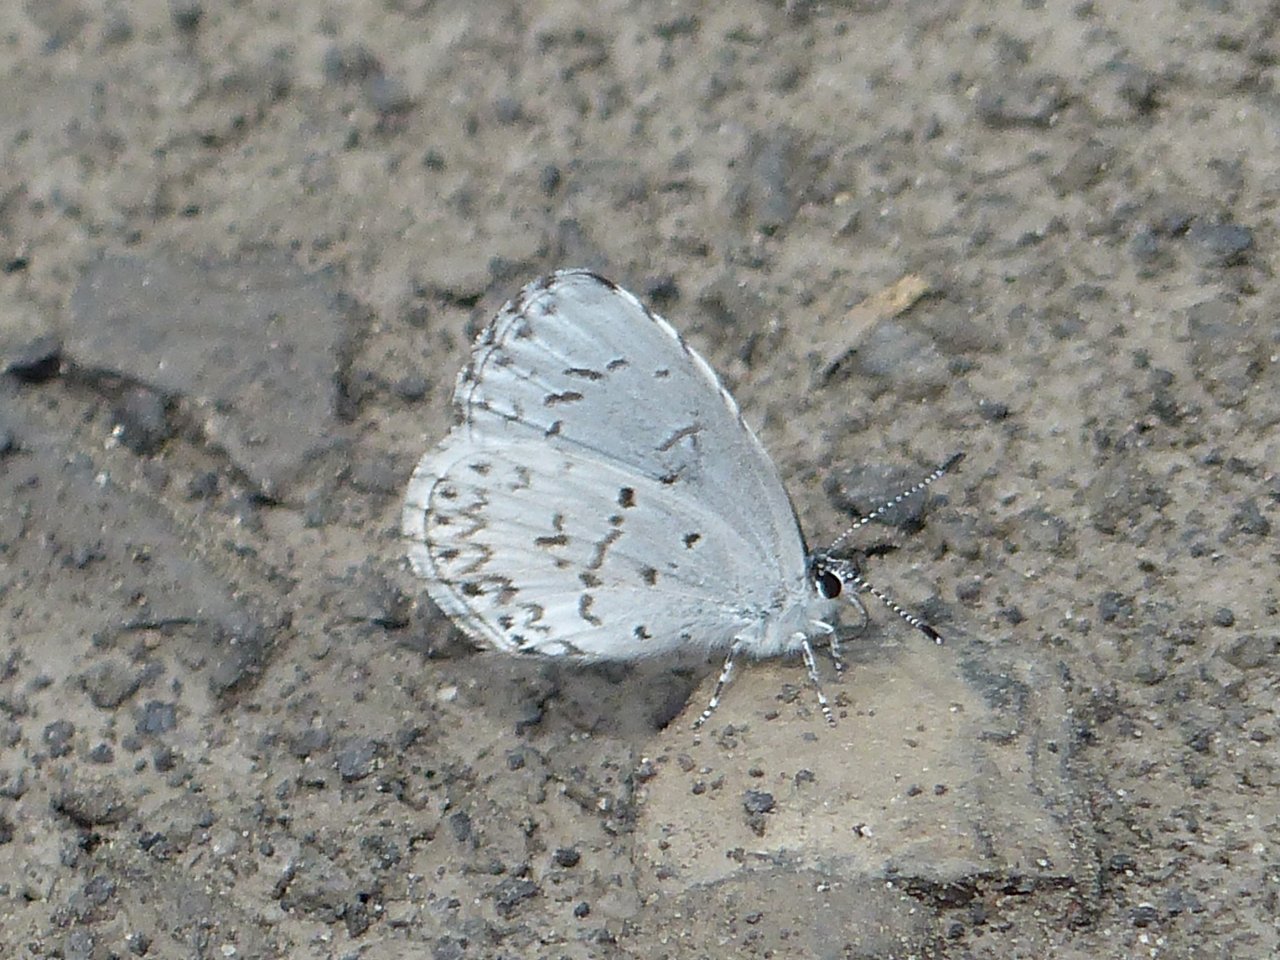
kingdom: Animalia
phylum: Arthropoda
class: Insecta
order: Lepidoptera
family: Lycaenidae
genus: Celastrina
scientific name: Celastrina lucia
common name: Northern Spring Azure
